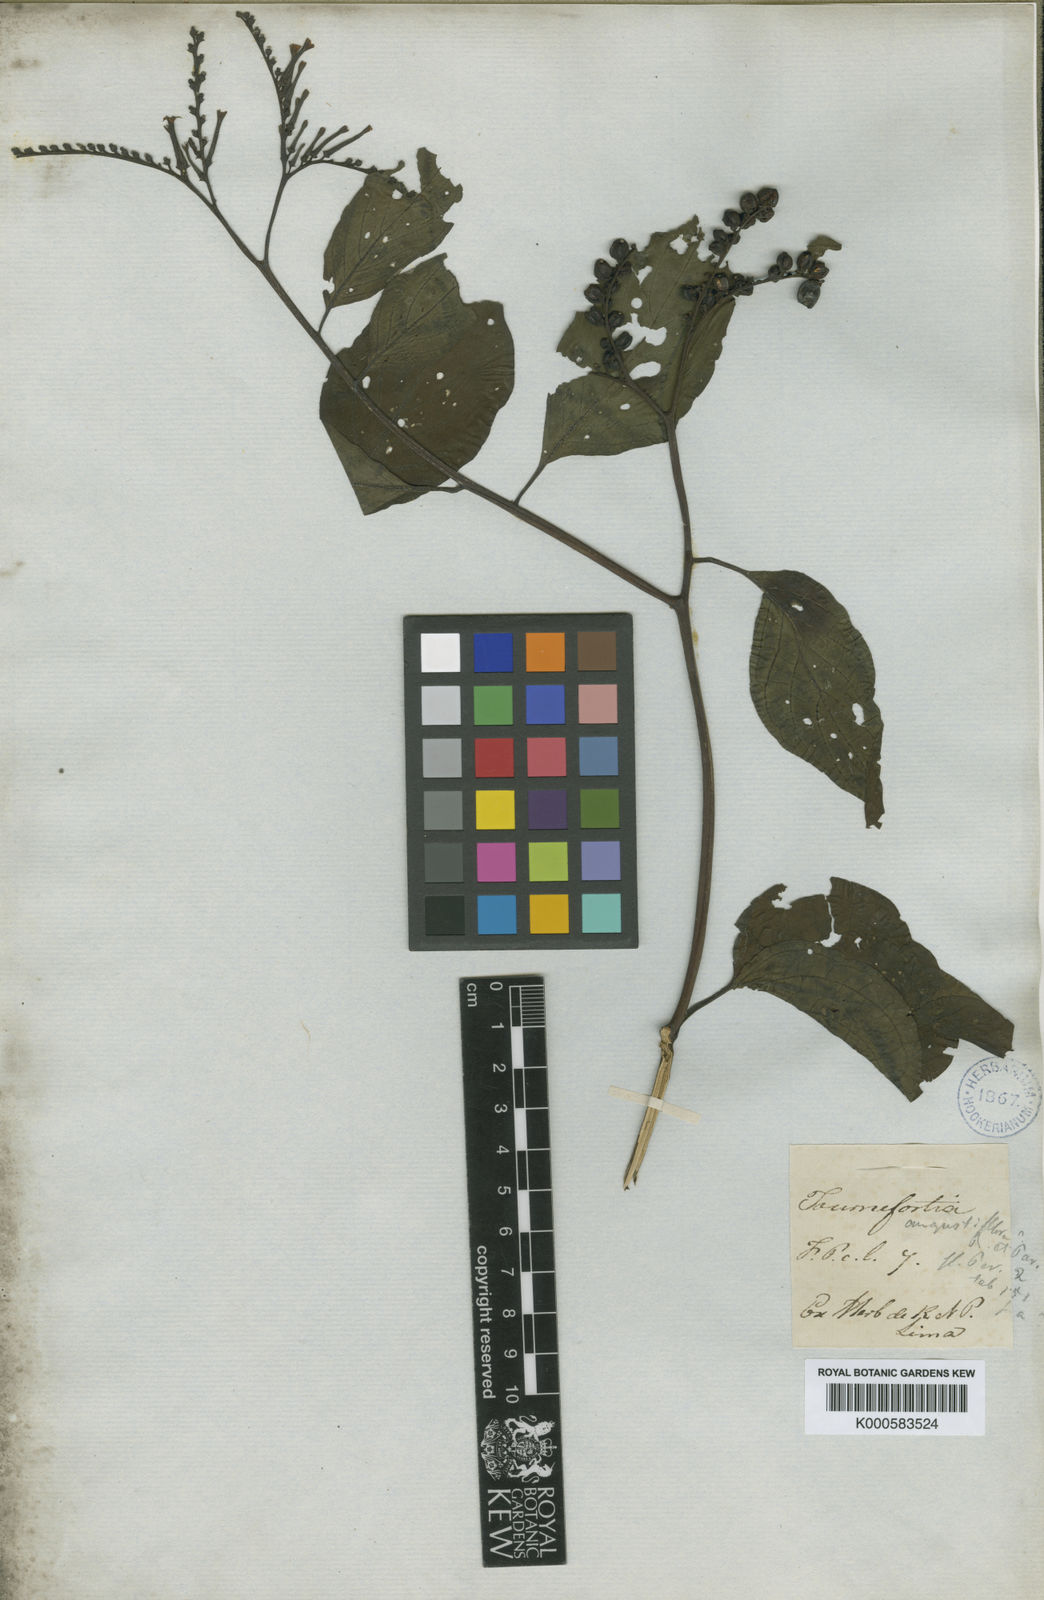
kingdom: Plantae
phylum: Tracheophyta
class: Magnoliopsida
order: Boraginales
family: Heliotropiaceae
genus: Heliotropium
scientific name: Heliotropium angustiflorum
